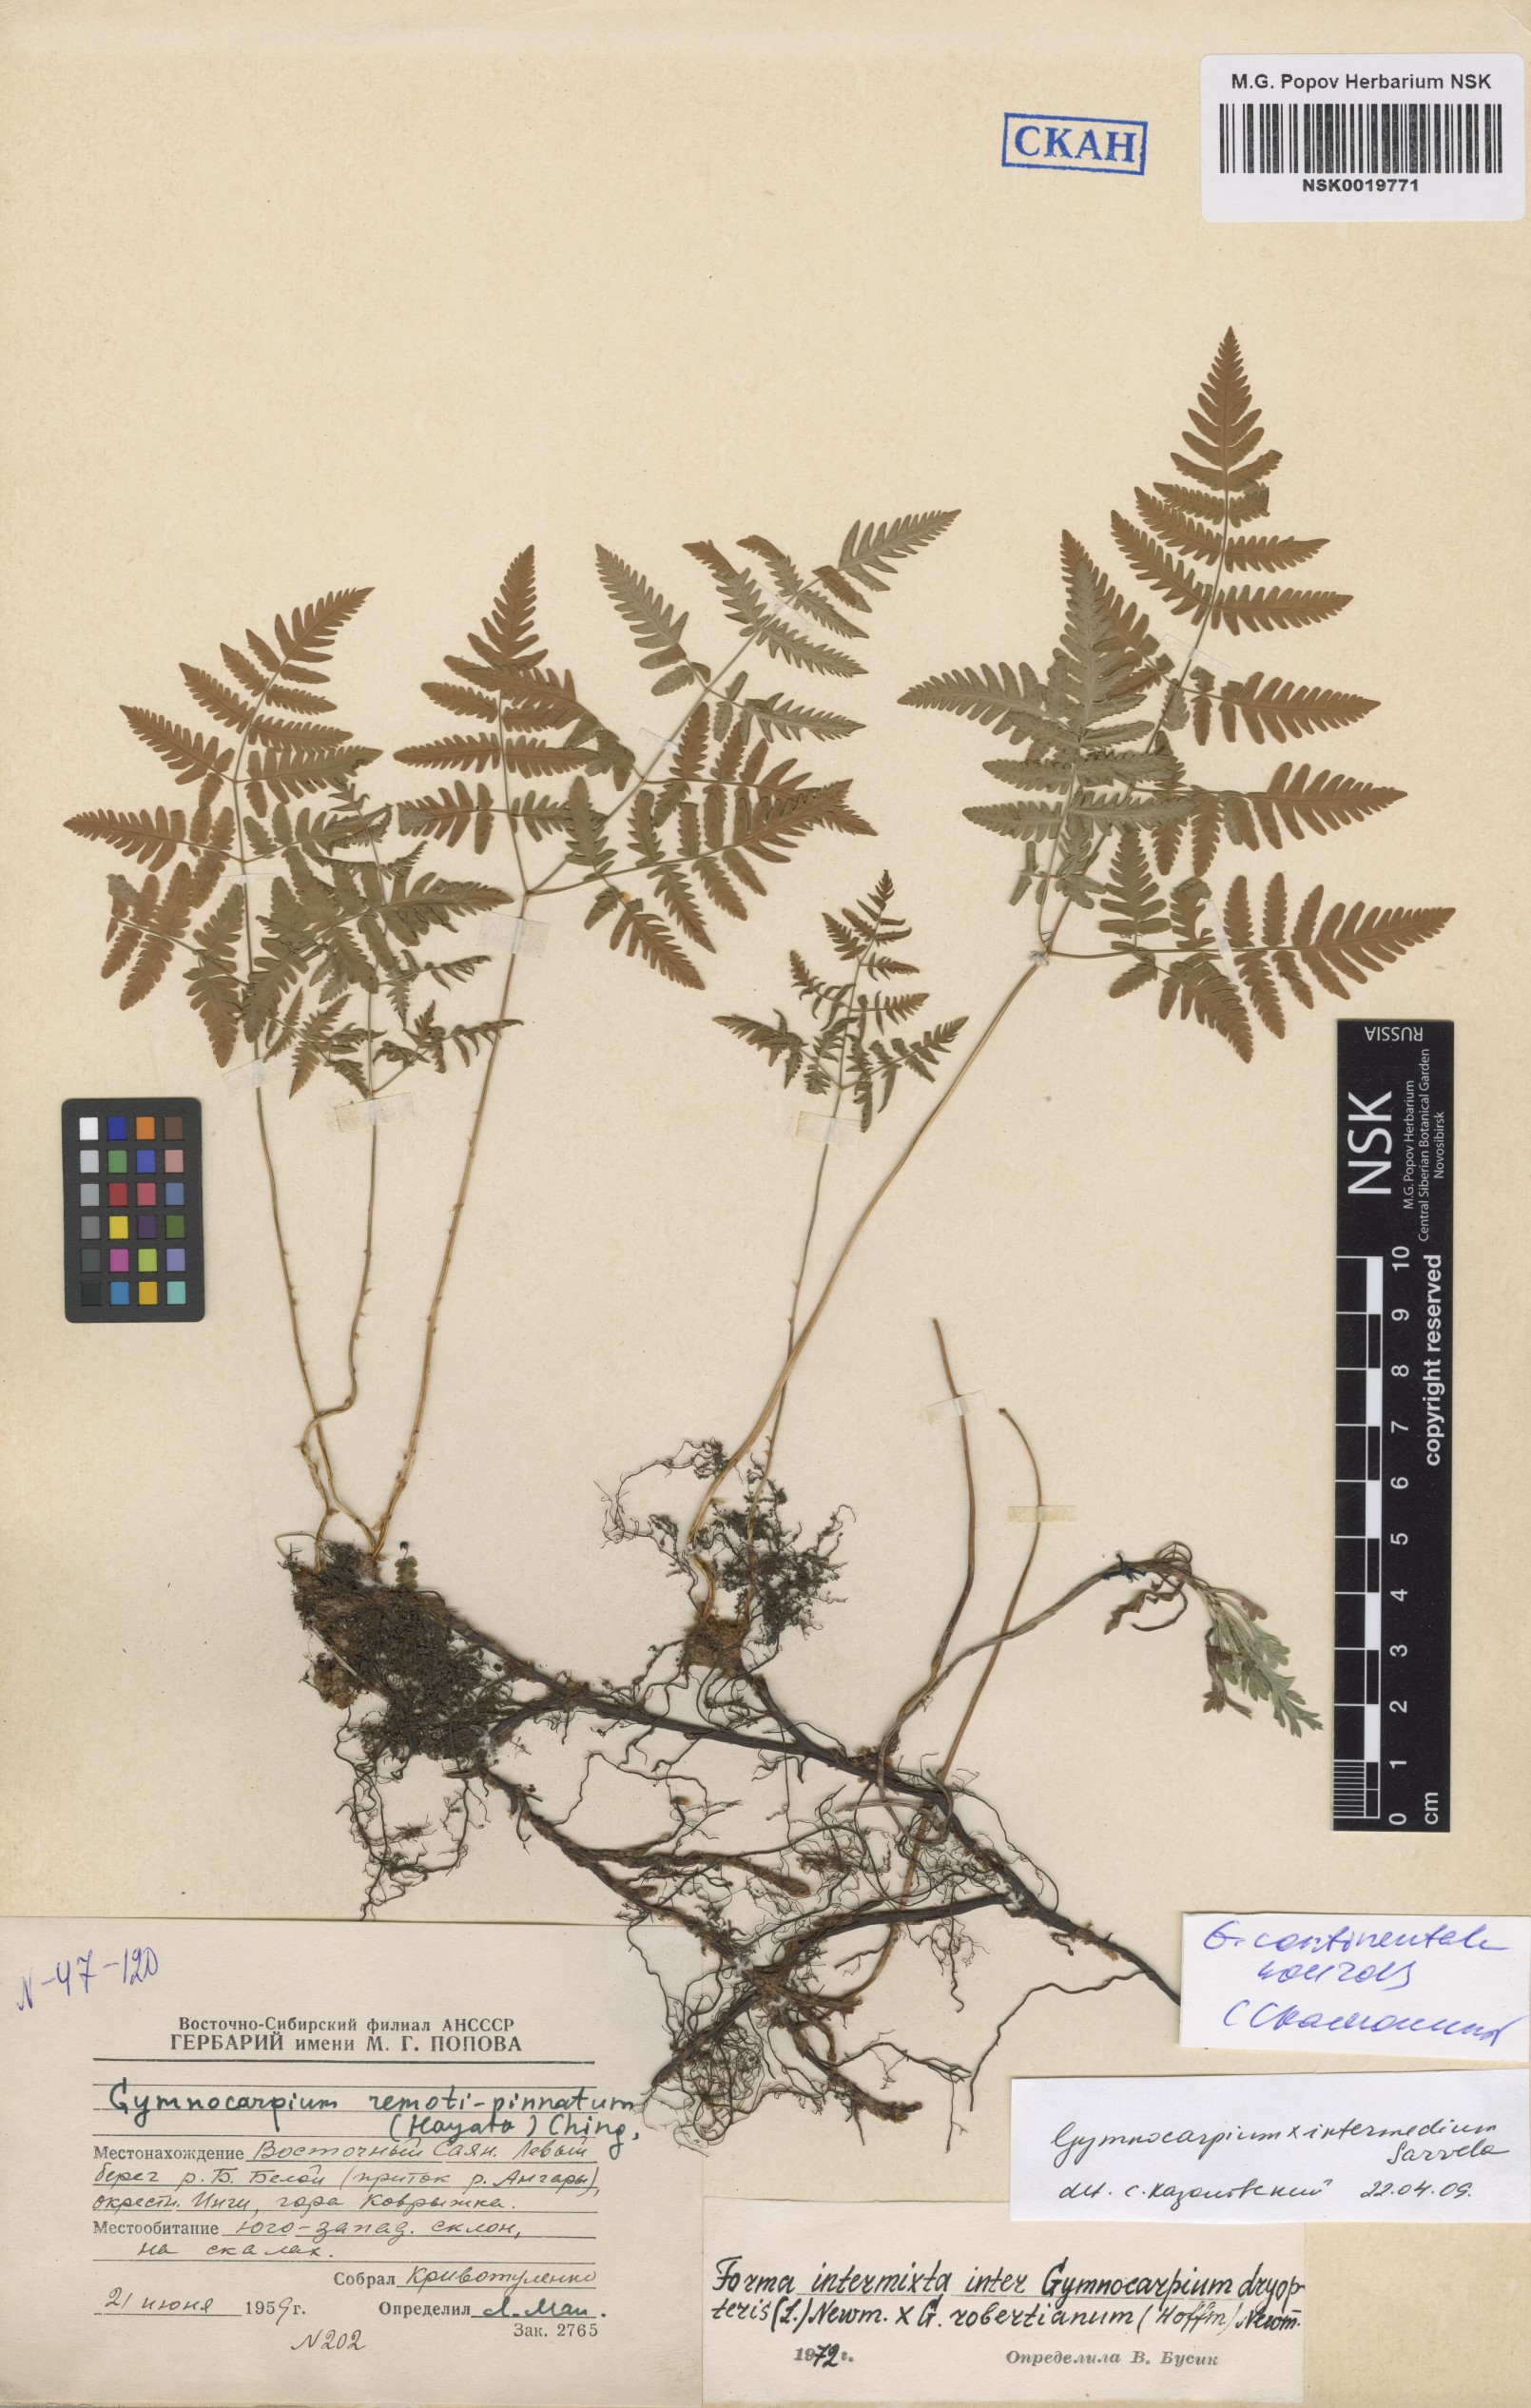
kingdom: Plantae
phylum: Tracheophyta
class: Polypodiopsida
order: Polypodiales
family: Cystopteridaceae
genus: Gymnocarpium
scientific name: Gymnocarpium continentale
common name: Asian oak fern
